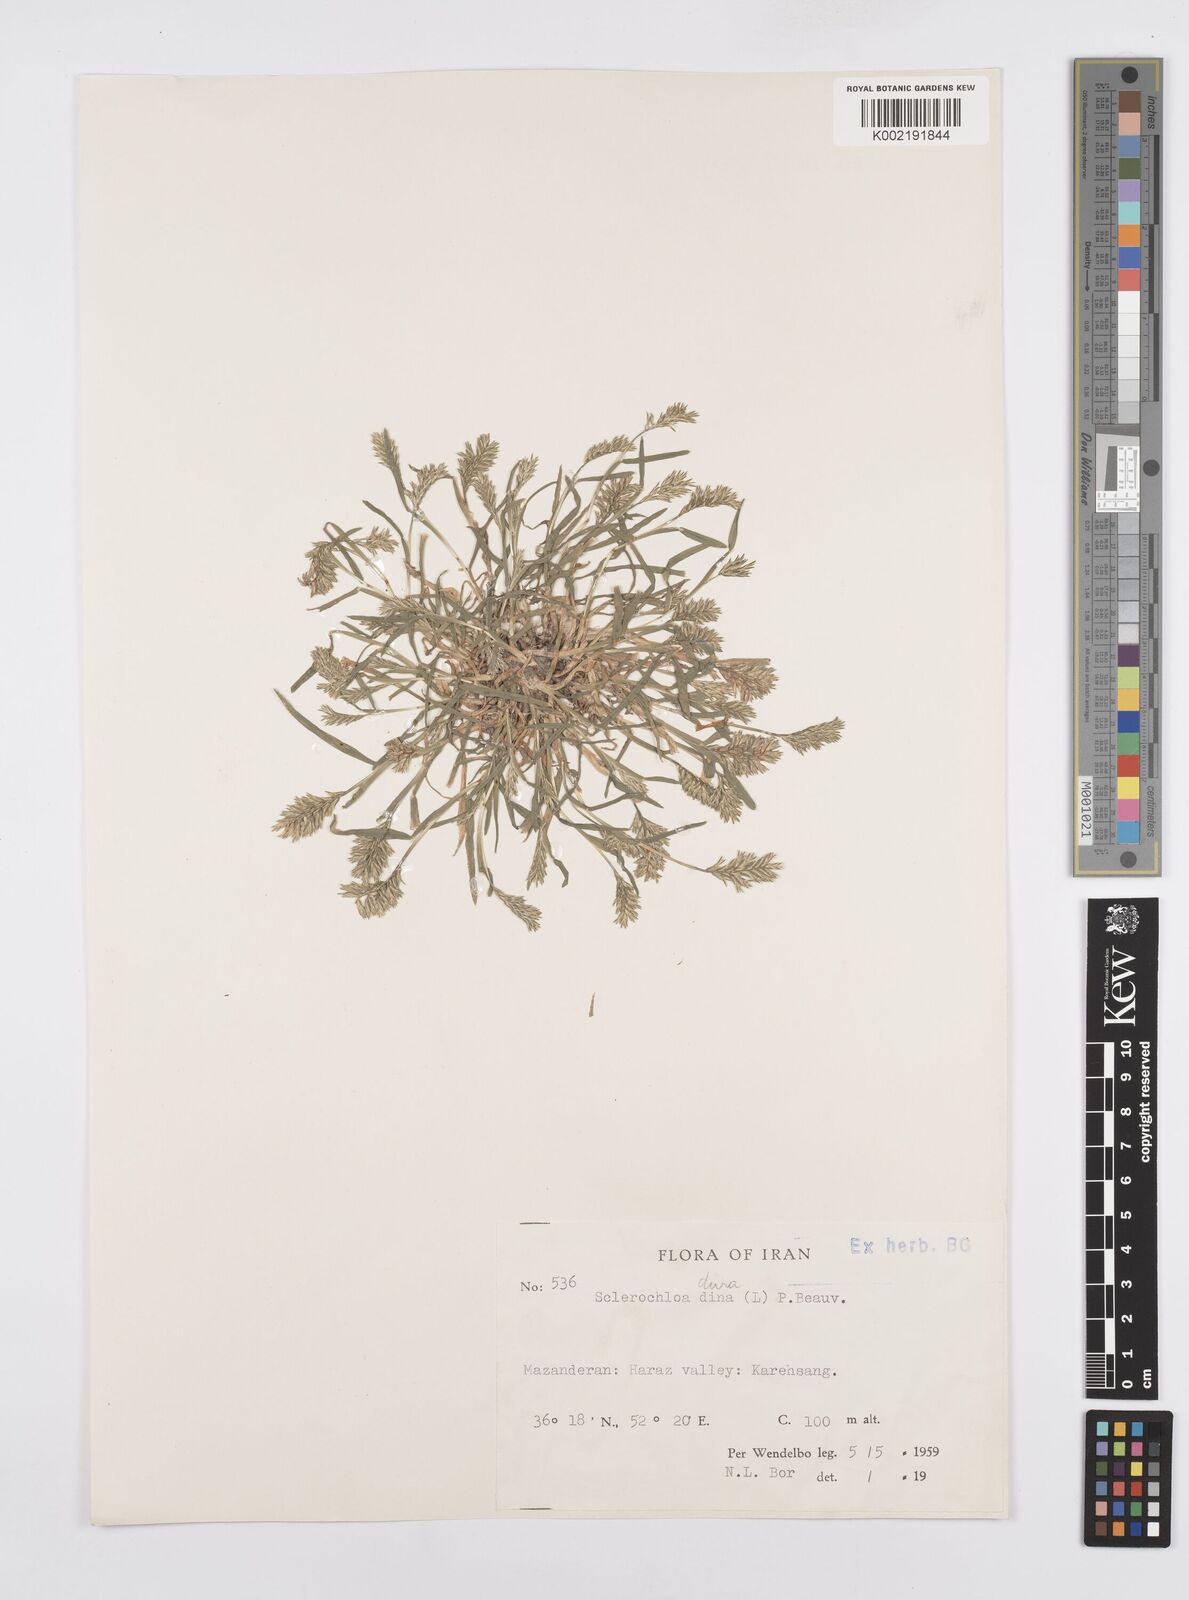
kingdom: Plantae
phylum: Tracheophyta
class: Liliopsida
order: Poales
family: Poaceae
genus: Sclerochloa
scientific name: Sclerochloa dura
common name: Common hardgrass
